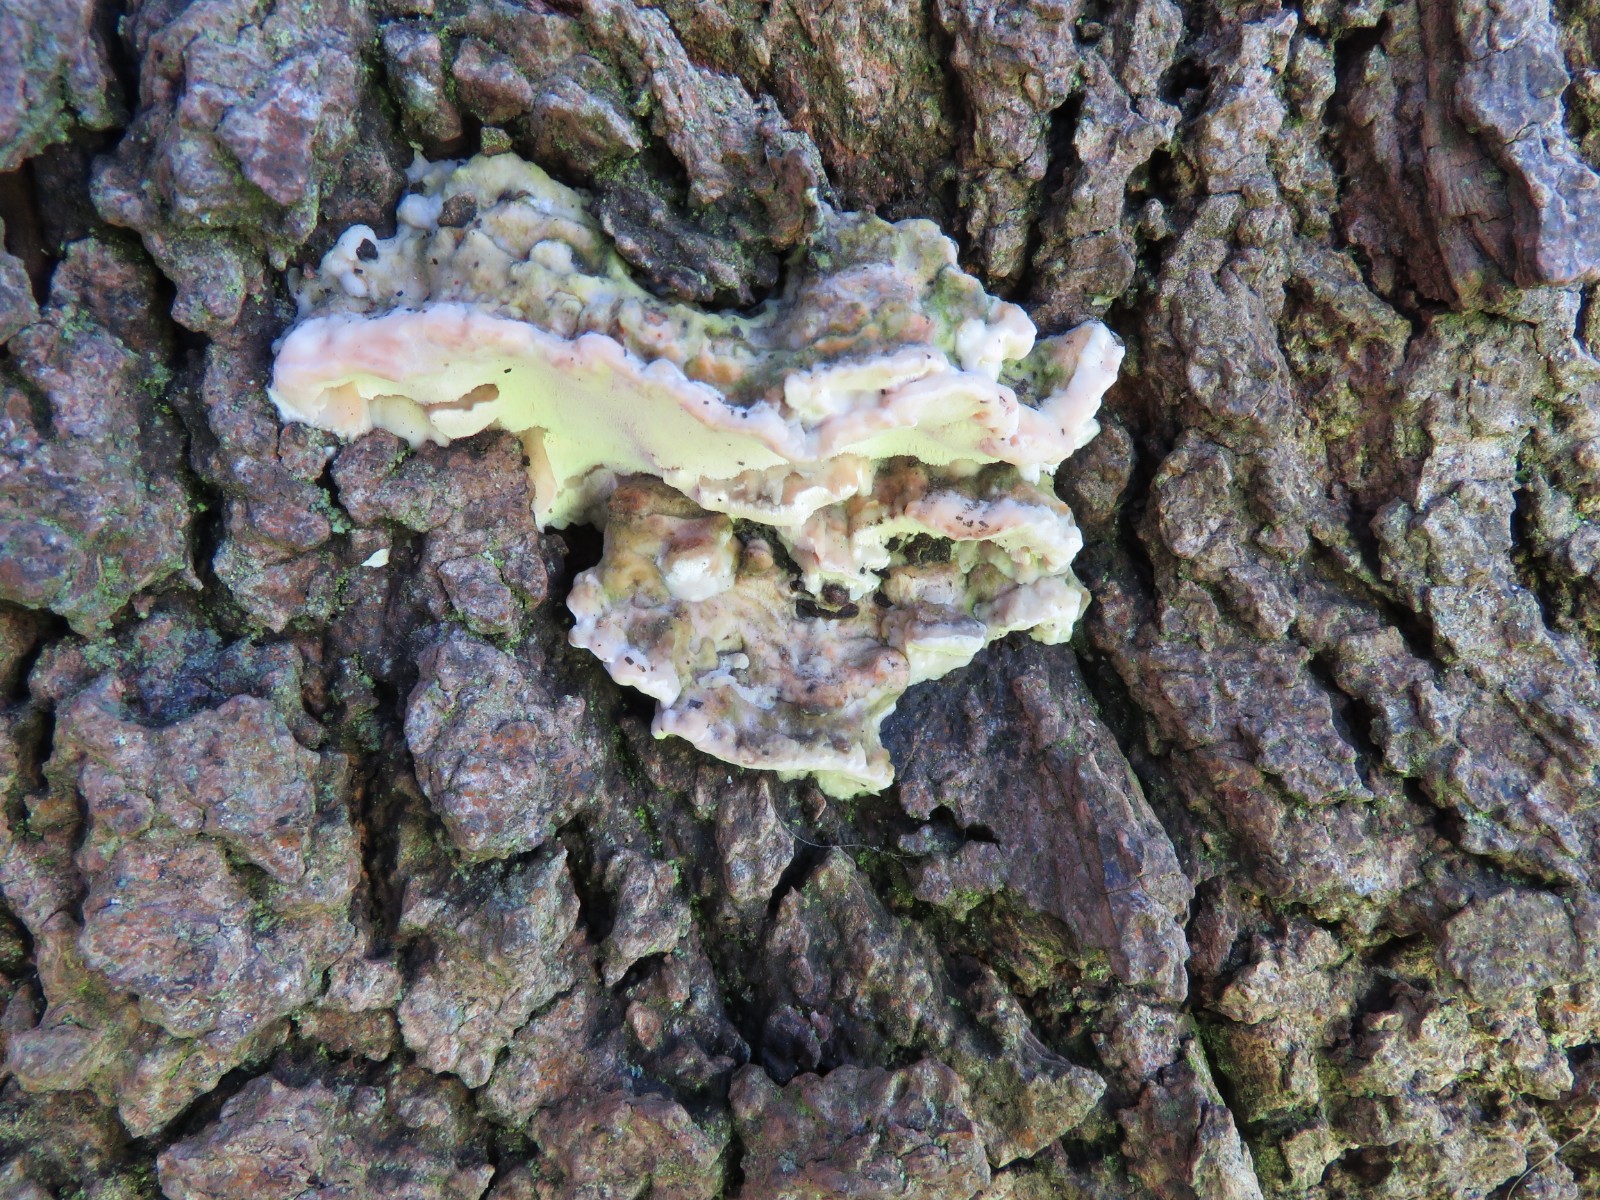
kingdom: Fungi
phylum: Basidiomycota
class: Agaricomycetes
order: Hymenochaetales
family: Oxyporaceae
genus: Oxyporus
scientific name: Oxyporus populinus
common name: sammenvokset trylleporesvamp
